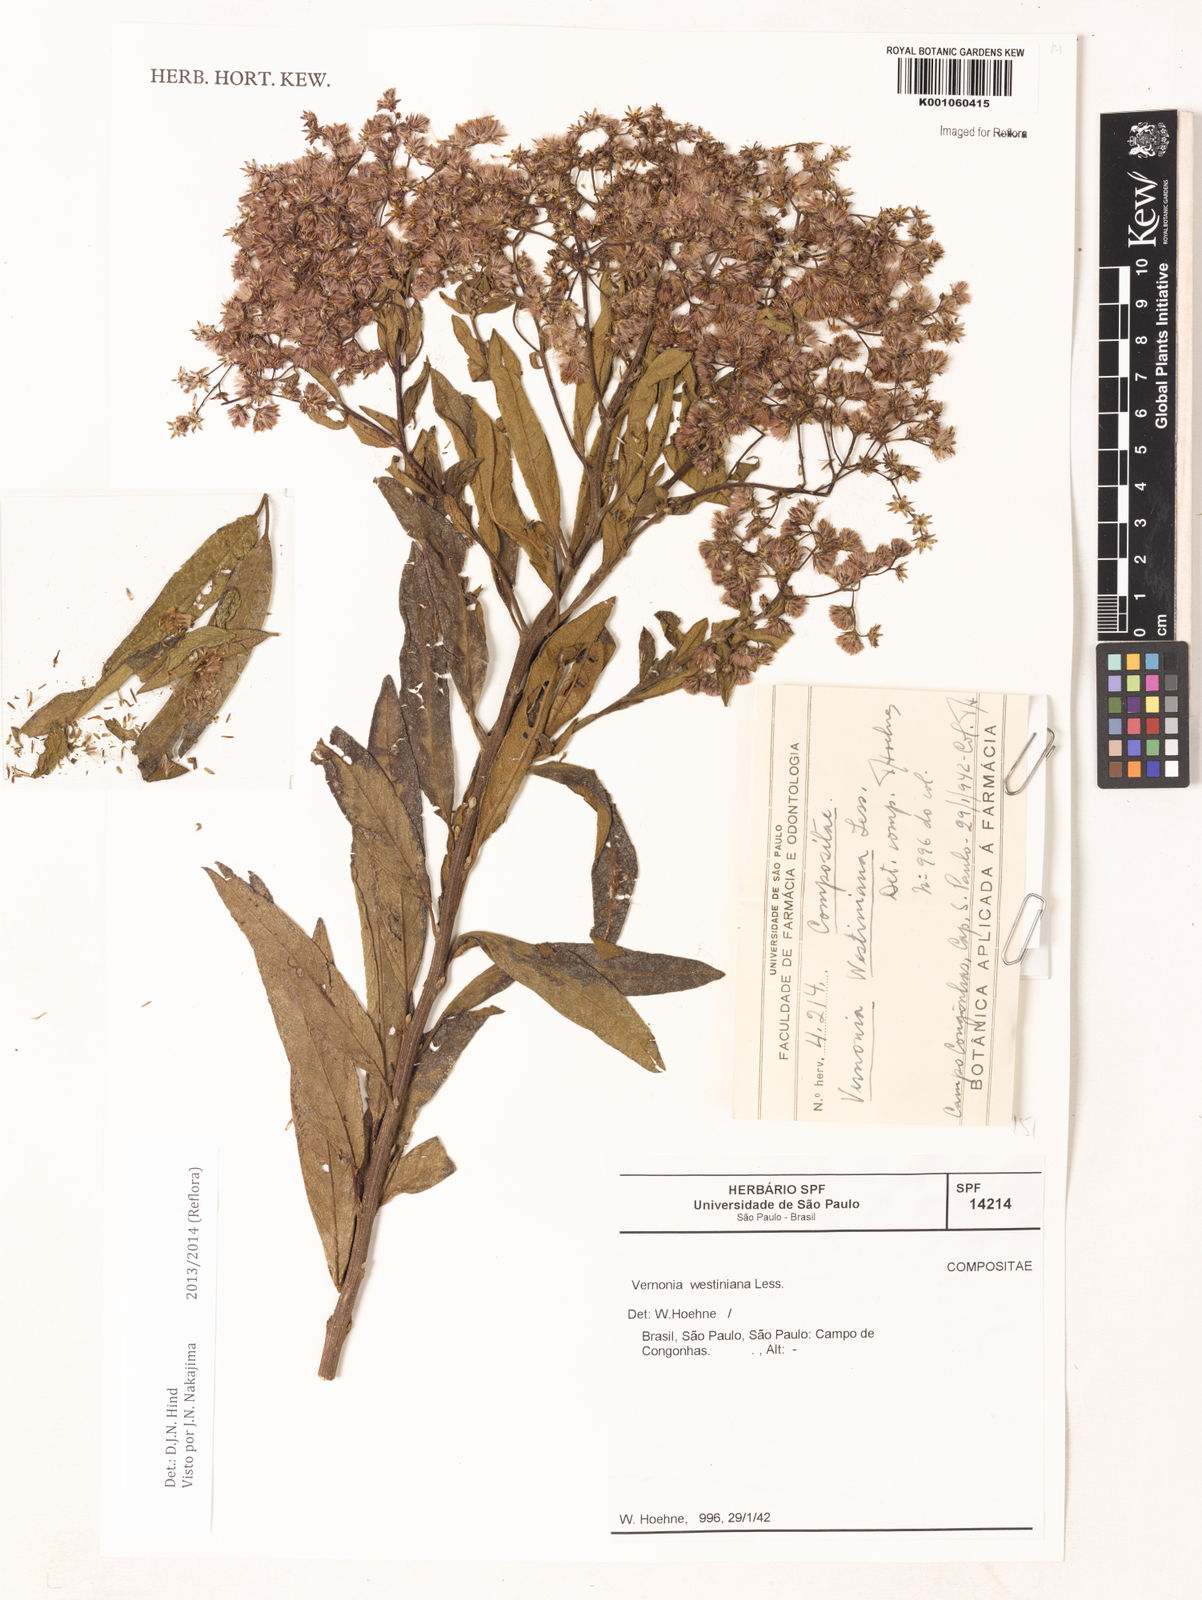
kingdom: Plantae
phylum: Tracheophyta
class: Magnoliopsida
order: Asterales
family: Asteraceae
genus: Vernonanthura
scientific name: Vernonanthura westiniana
